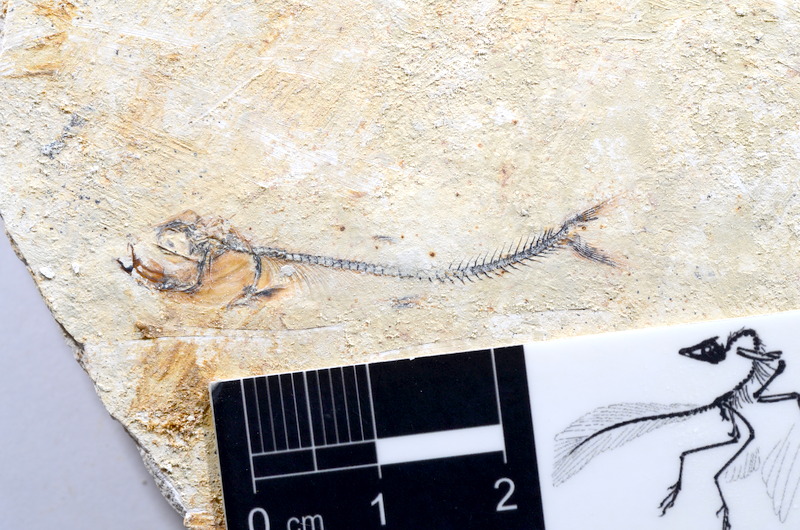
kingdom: Animalia
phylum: Chordata
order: Salmoniformes
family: Orthogonikleithridae
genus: Orthogonikleithrus
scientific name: Orthogonikleithrus hoelli
